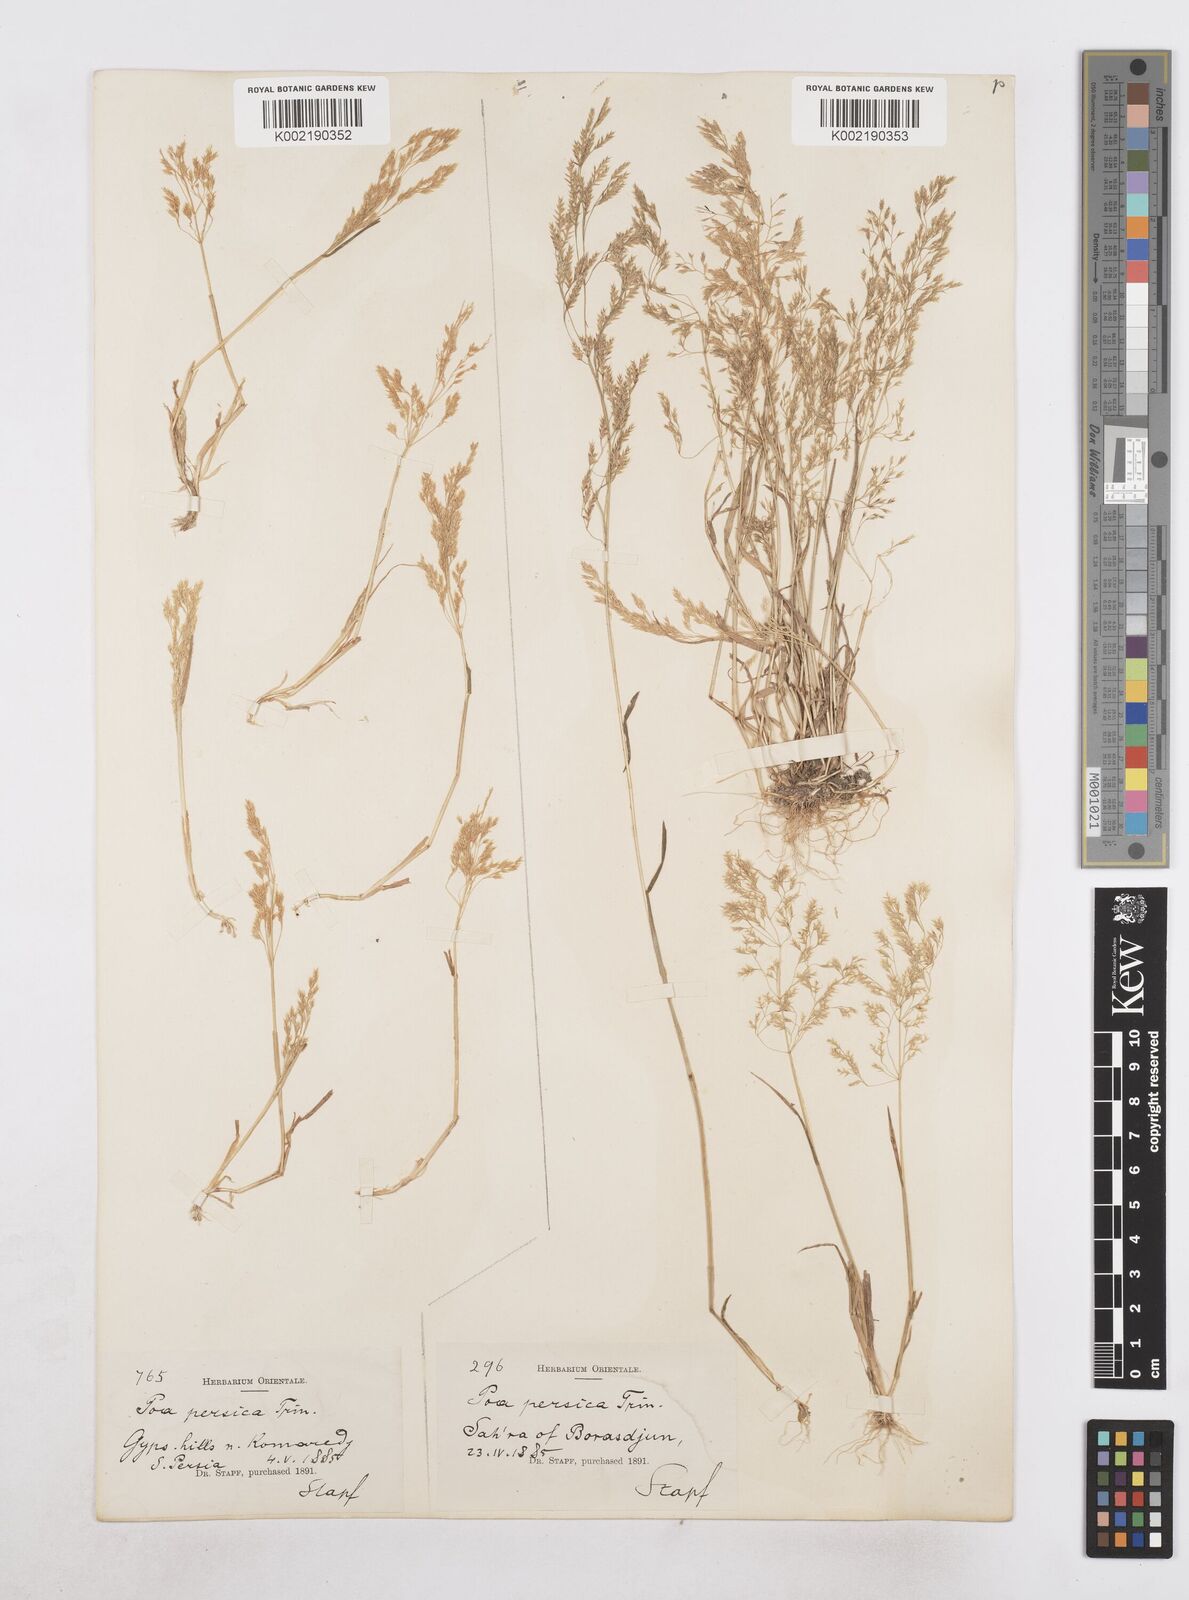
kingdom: Plantae
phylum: Tracheophyta
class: Liliopsida
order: Poales
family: Poaceae
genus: Poa
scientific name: Poa persica
